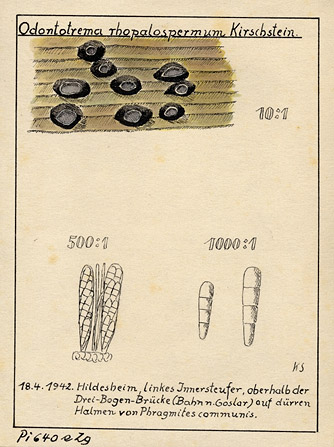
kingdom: Plantae
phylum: Tracheophyta
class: Liliopsida
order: Poales
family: Poaceae
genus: Phragmites
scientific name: Phragmites australis
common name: Common reed
